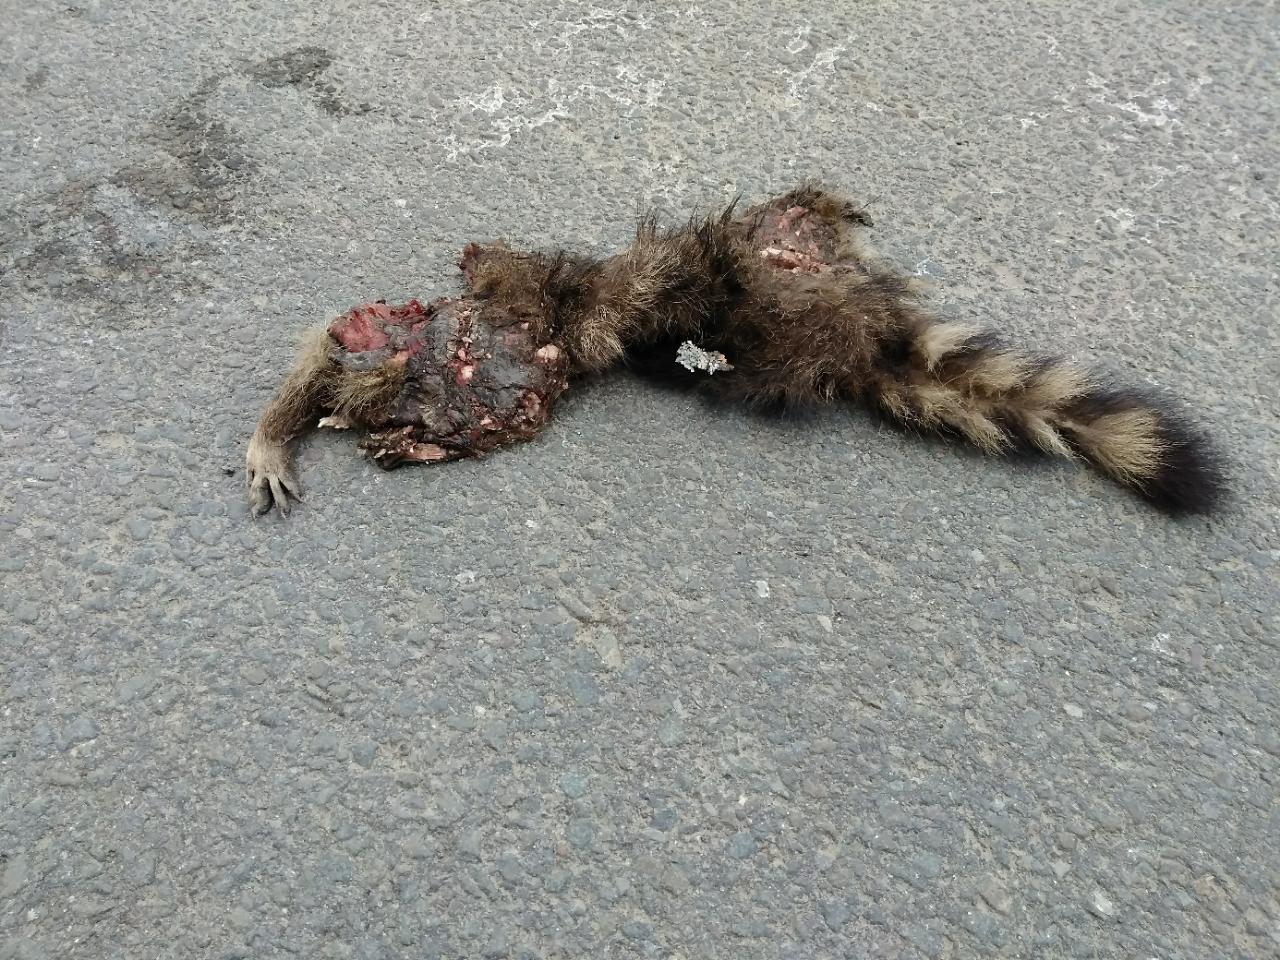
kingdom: Animalia
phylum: Chordata
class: Mammalia
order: Carnivora
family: Procyonidae
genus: Procyon
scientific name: Procyon lotor
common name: Raccoon
